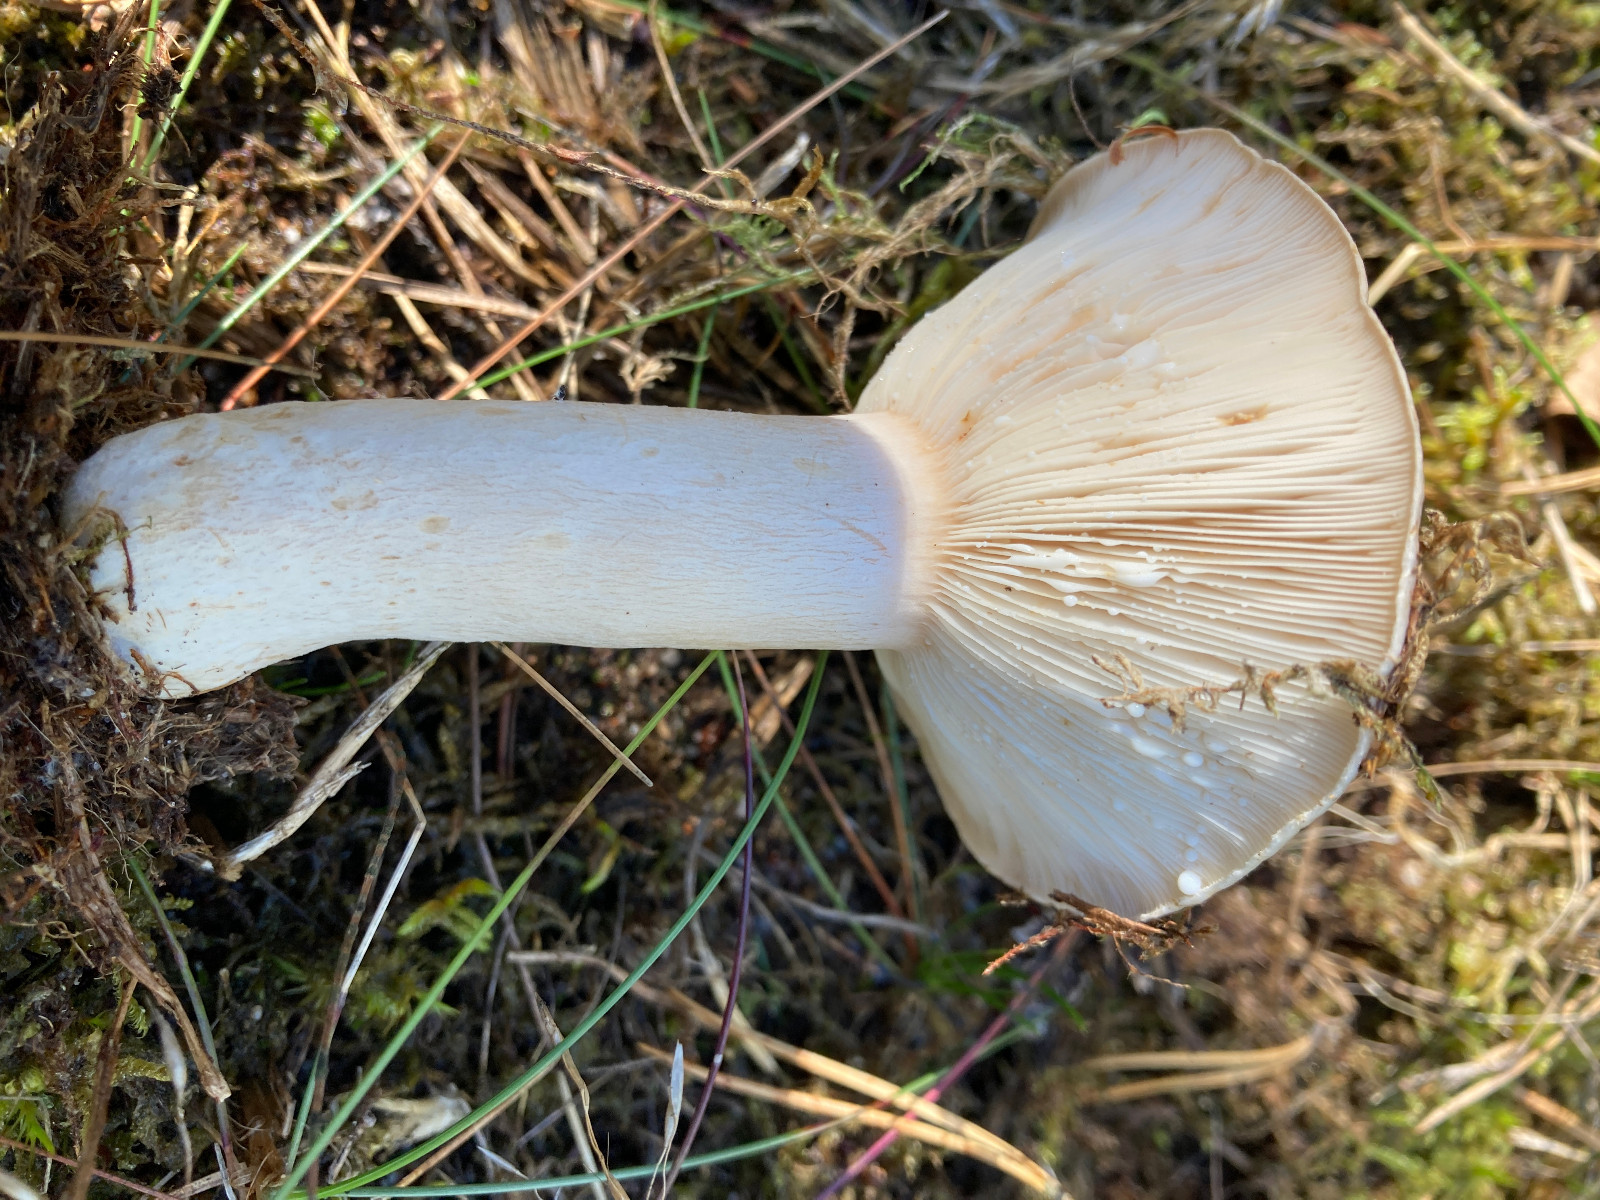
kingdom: Fungi
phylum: Basidiomycota
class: Agaricomycetes
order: Russulales
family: Russulaceae
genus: Lactarius
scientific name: Lactarius musteus
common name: elfenbens-mælkehat
